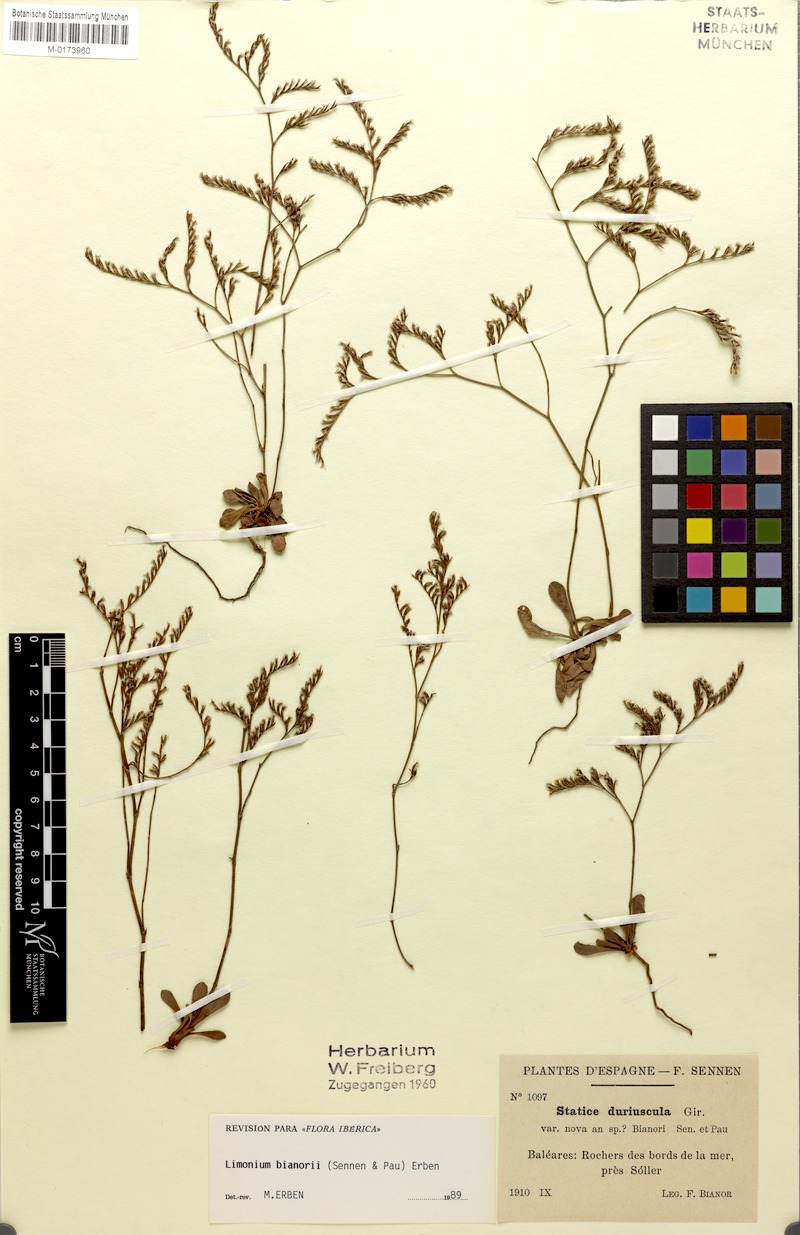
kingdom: Plantae
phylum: Tracheophyta
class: Magnoliopsida
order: Caryophyllales
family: Plumbaginaceae
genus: Limonium
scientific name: Limonium bianorii
